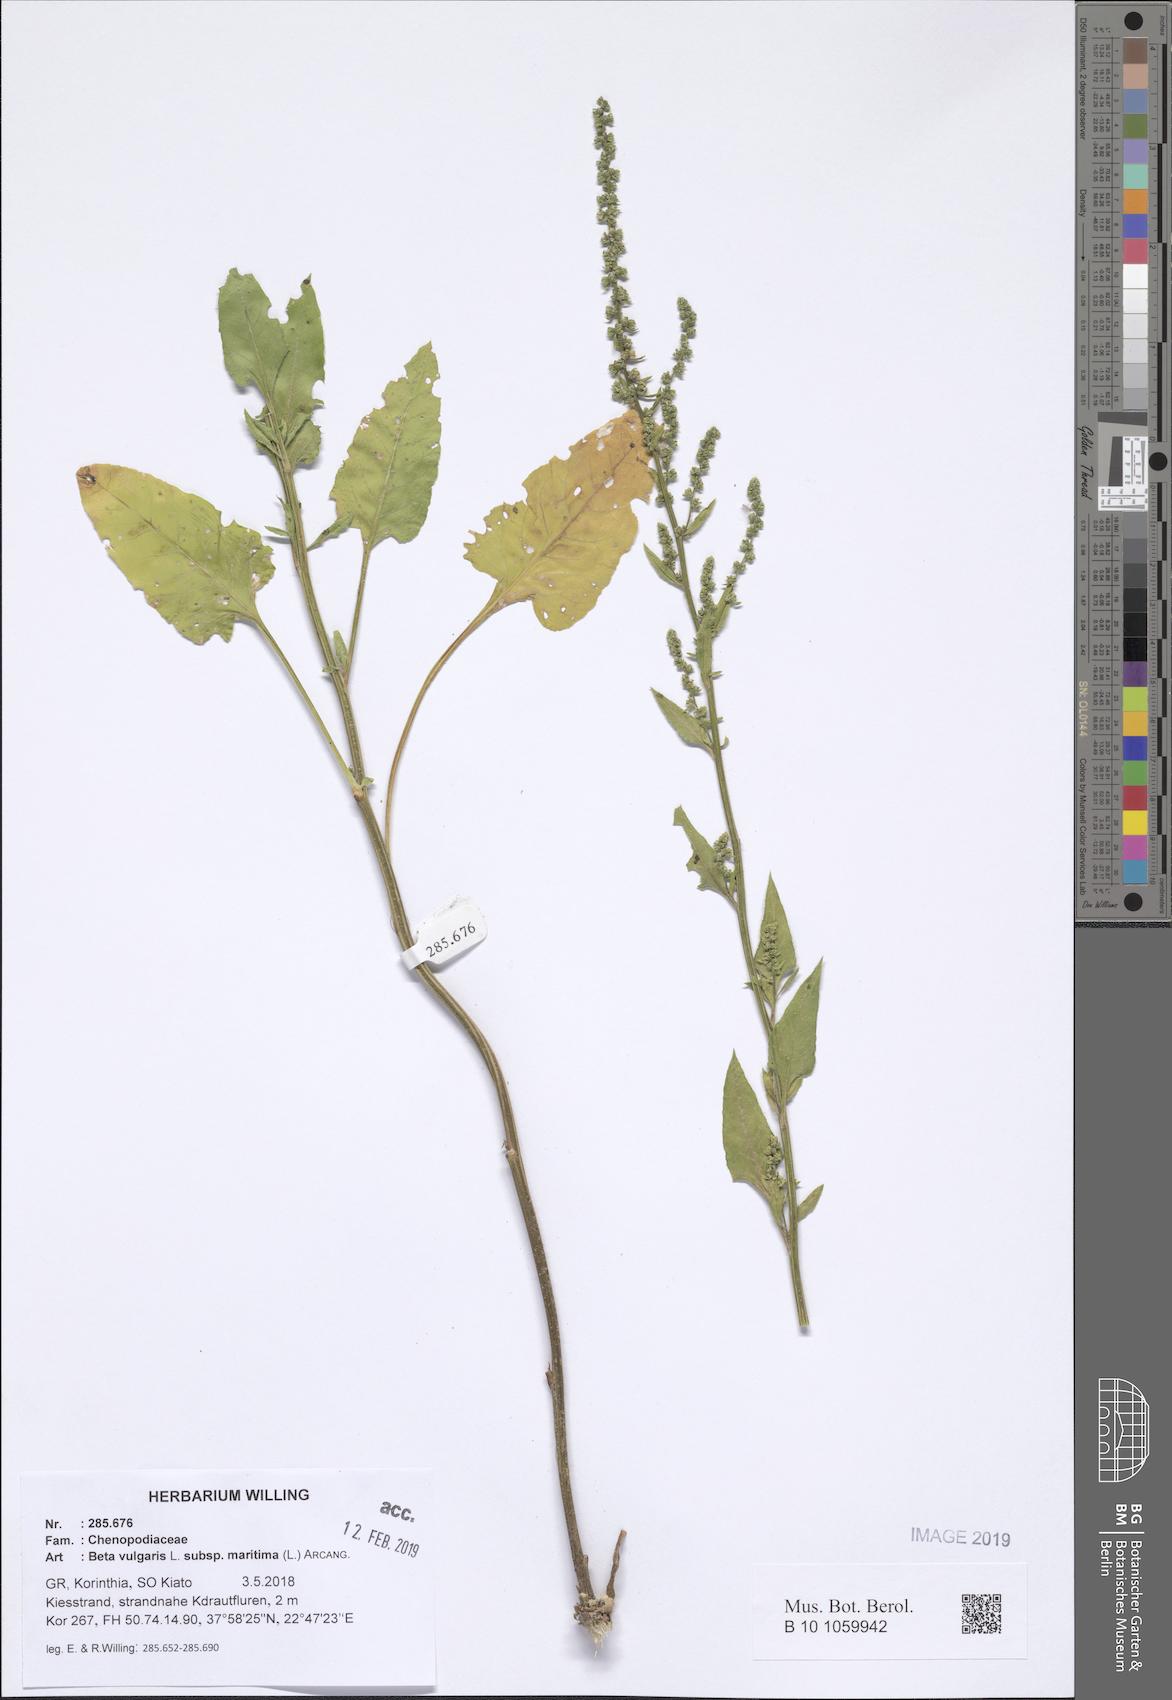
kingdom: Plantae
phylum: Tracheophyta
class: Magnoliopsida
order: Caryophyllales
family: Amaranthaceae
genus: Beta
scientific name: Beta maritima
